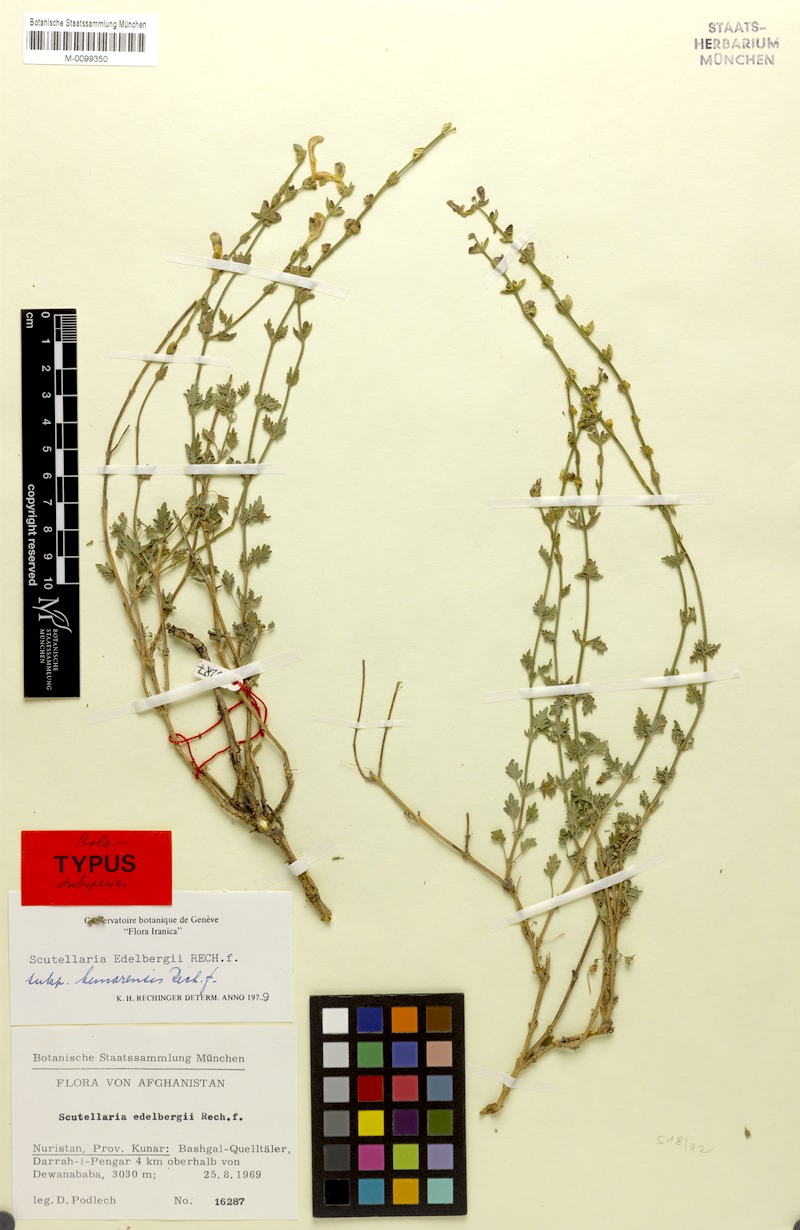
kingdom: Plantae
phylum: Tracheophyta
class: Magnoliopsida
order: Lamiales
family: Lamiaceae
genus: Scutellaria
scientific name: Scutellaria edelbergii
